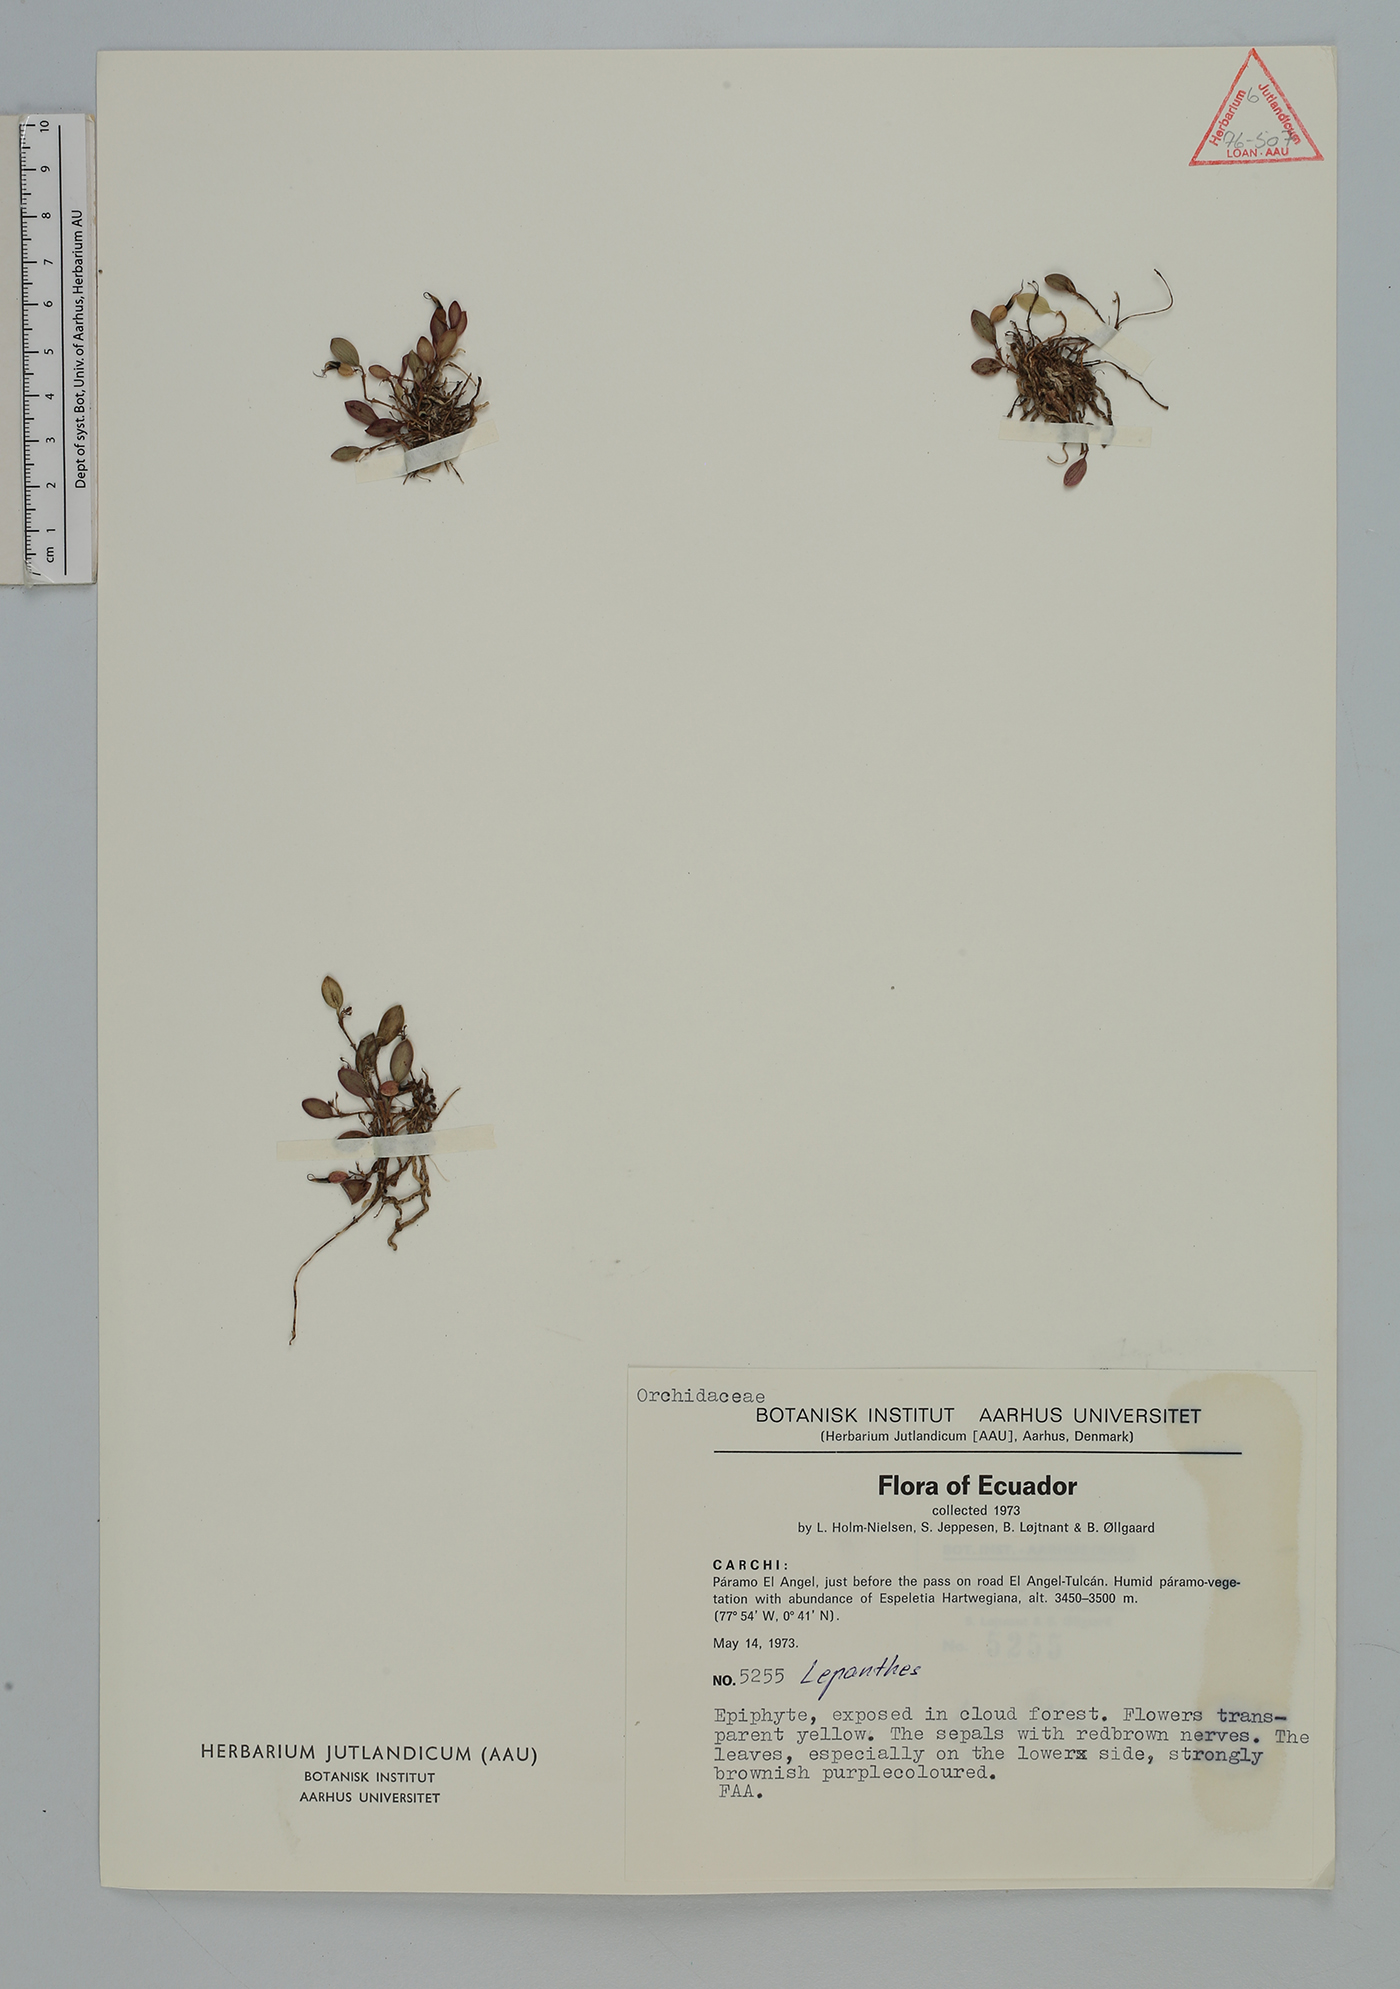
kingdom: Plantae
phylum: Tracheophyta
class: Liliopsida
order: Asparagales
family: Orchidaceae
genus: Lepanthes
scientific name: Lepanthes
